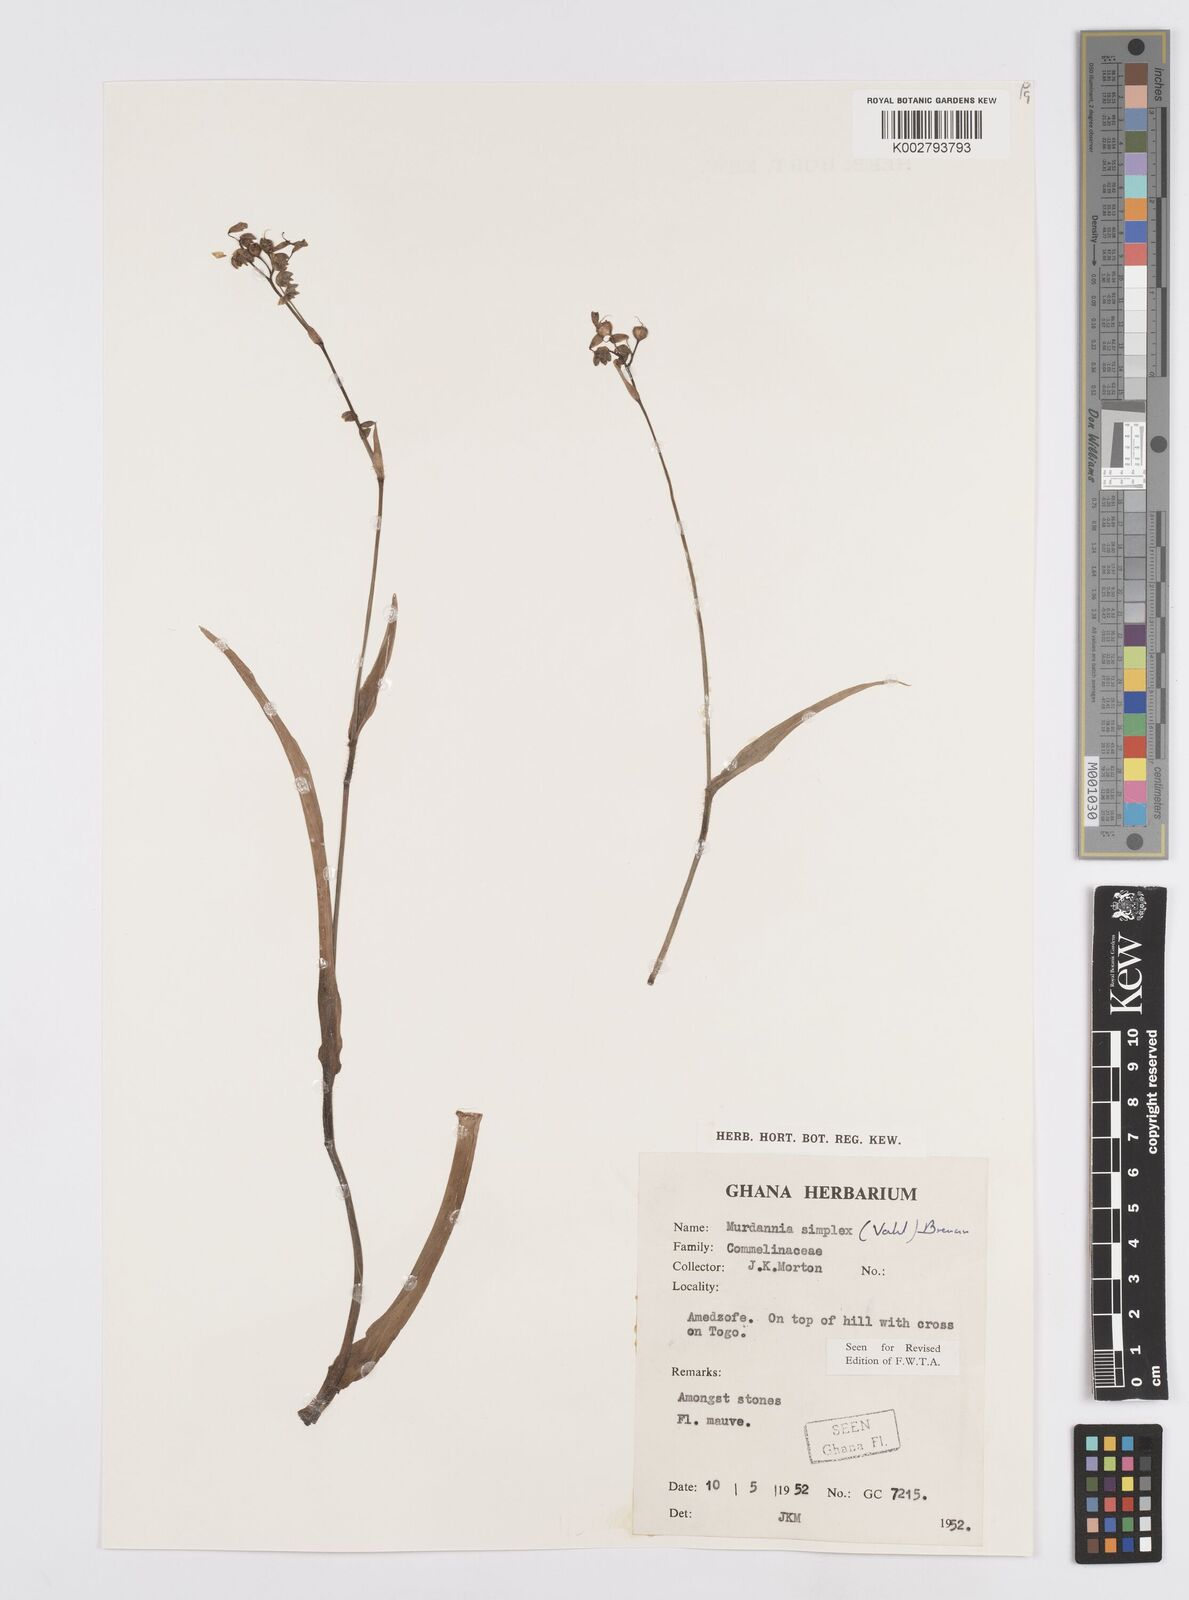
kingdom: Plantae
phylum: Tracheophyta
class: Liliopsida
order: Commelinales
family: Commelinaceae
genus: Murdannia
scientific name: Murdannia simplex
